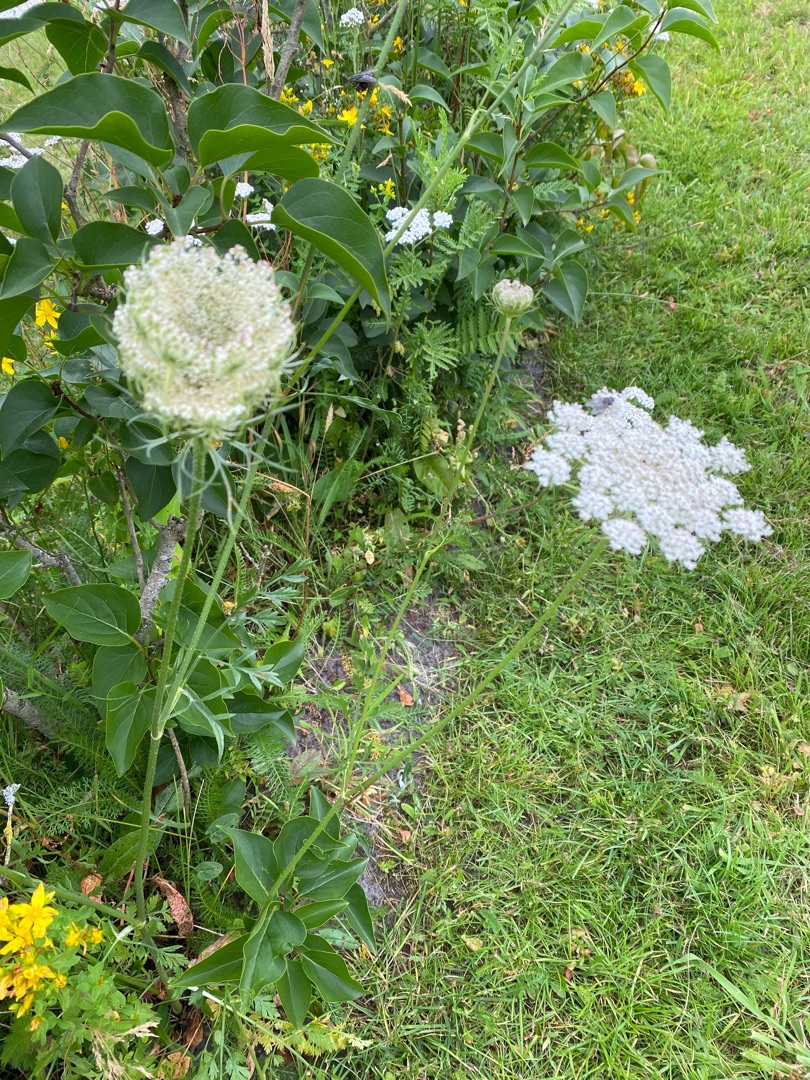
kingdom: Plantae
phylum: Tracheophyta
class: Magnoliopsida
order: Apiales
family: Apiaceae
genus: Daucus
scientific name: Daucus carota
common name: Vild gulerod
